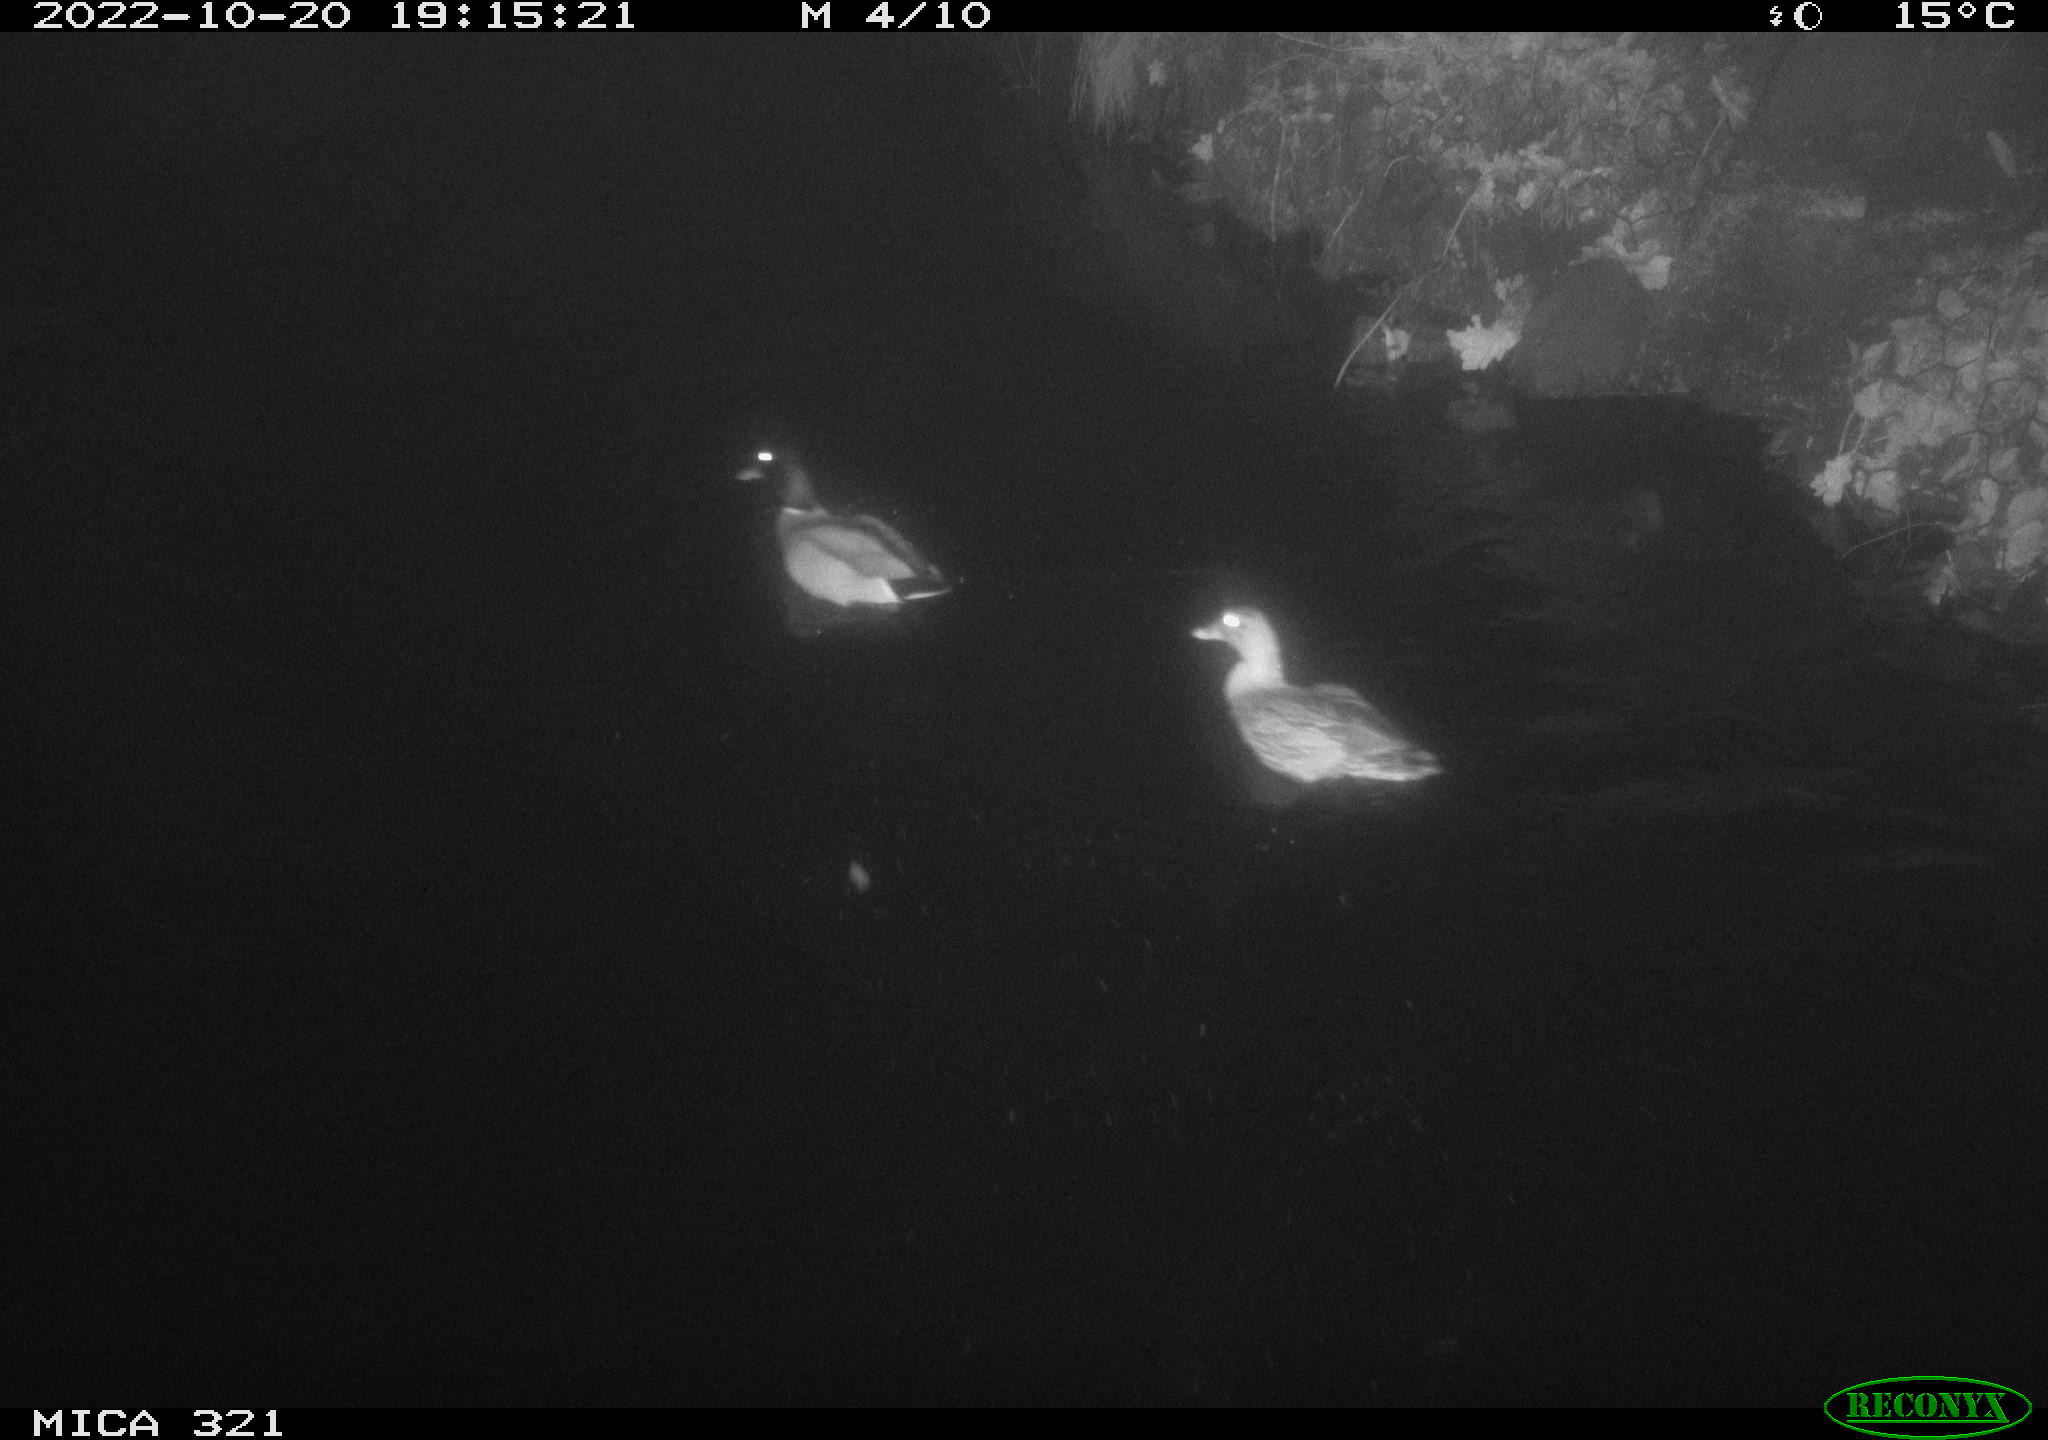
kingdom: Animalia
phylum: Chordata
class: Aves
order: Anseriformes
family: Anatidae
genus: Anas
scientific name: Anas
